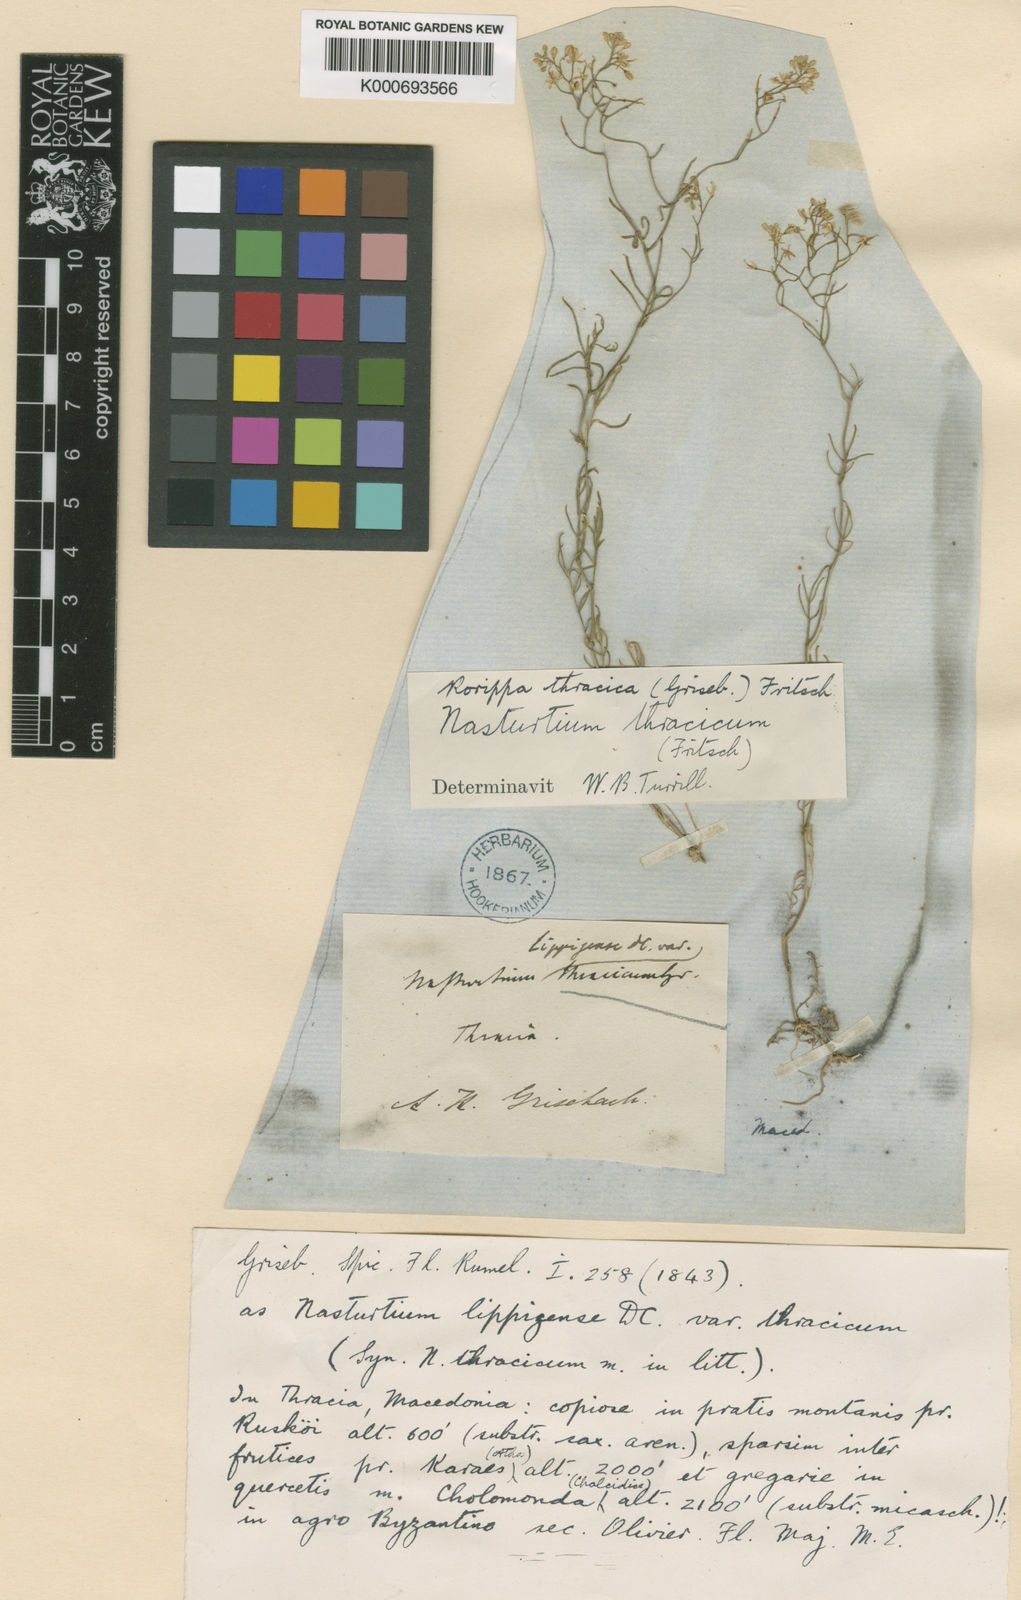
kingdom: Plantae
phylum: Tracheophyta
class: Magnoliopsida
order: Brassicales
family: Brassicaceae
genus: Rorippa
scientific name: Rorippa lippizensis
